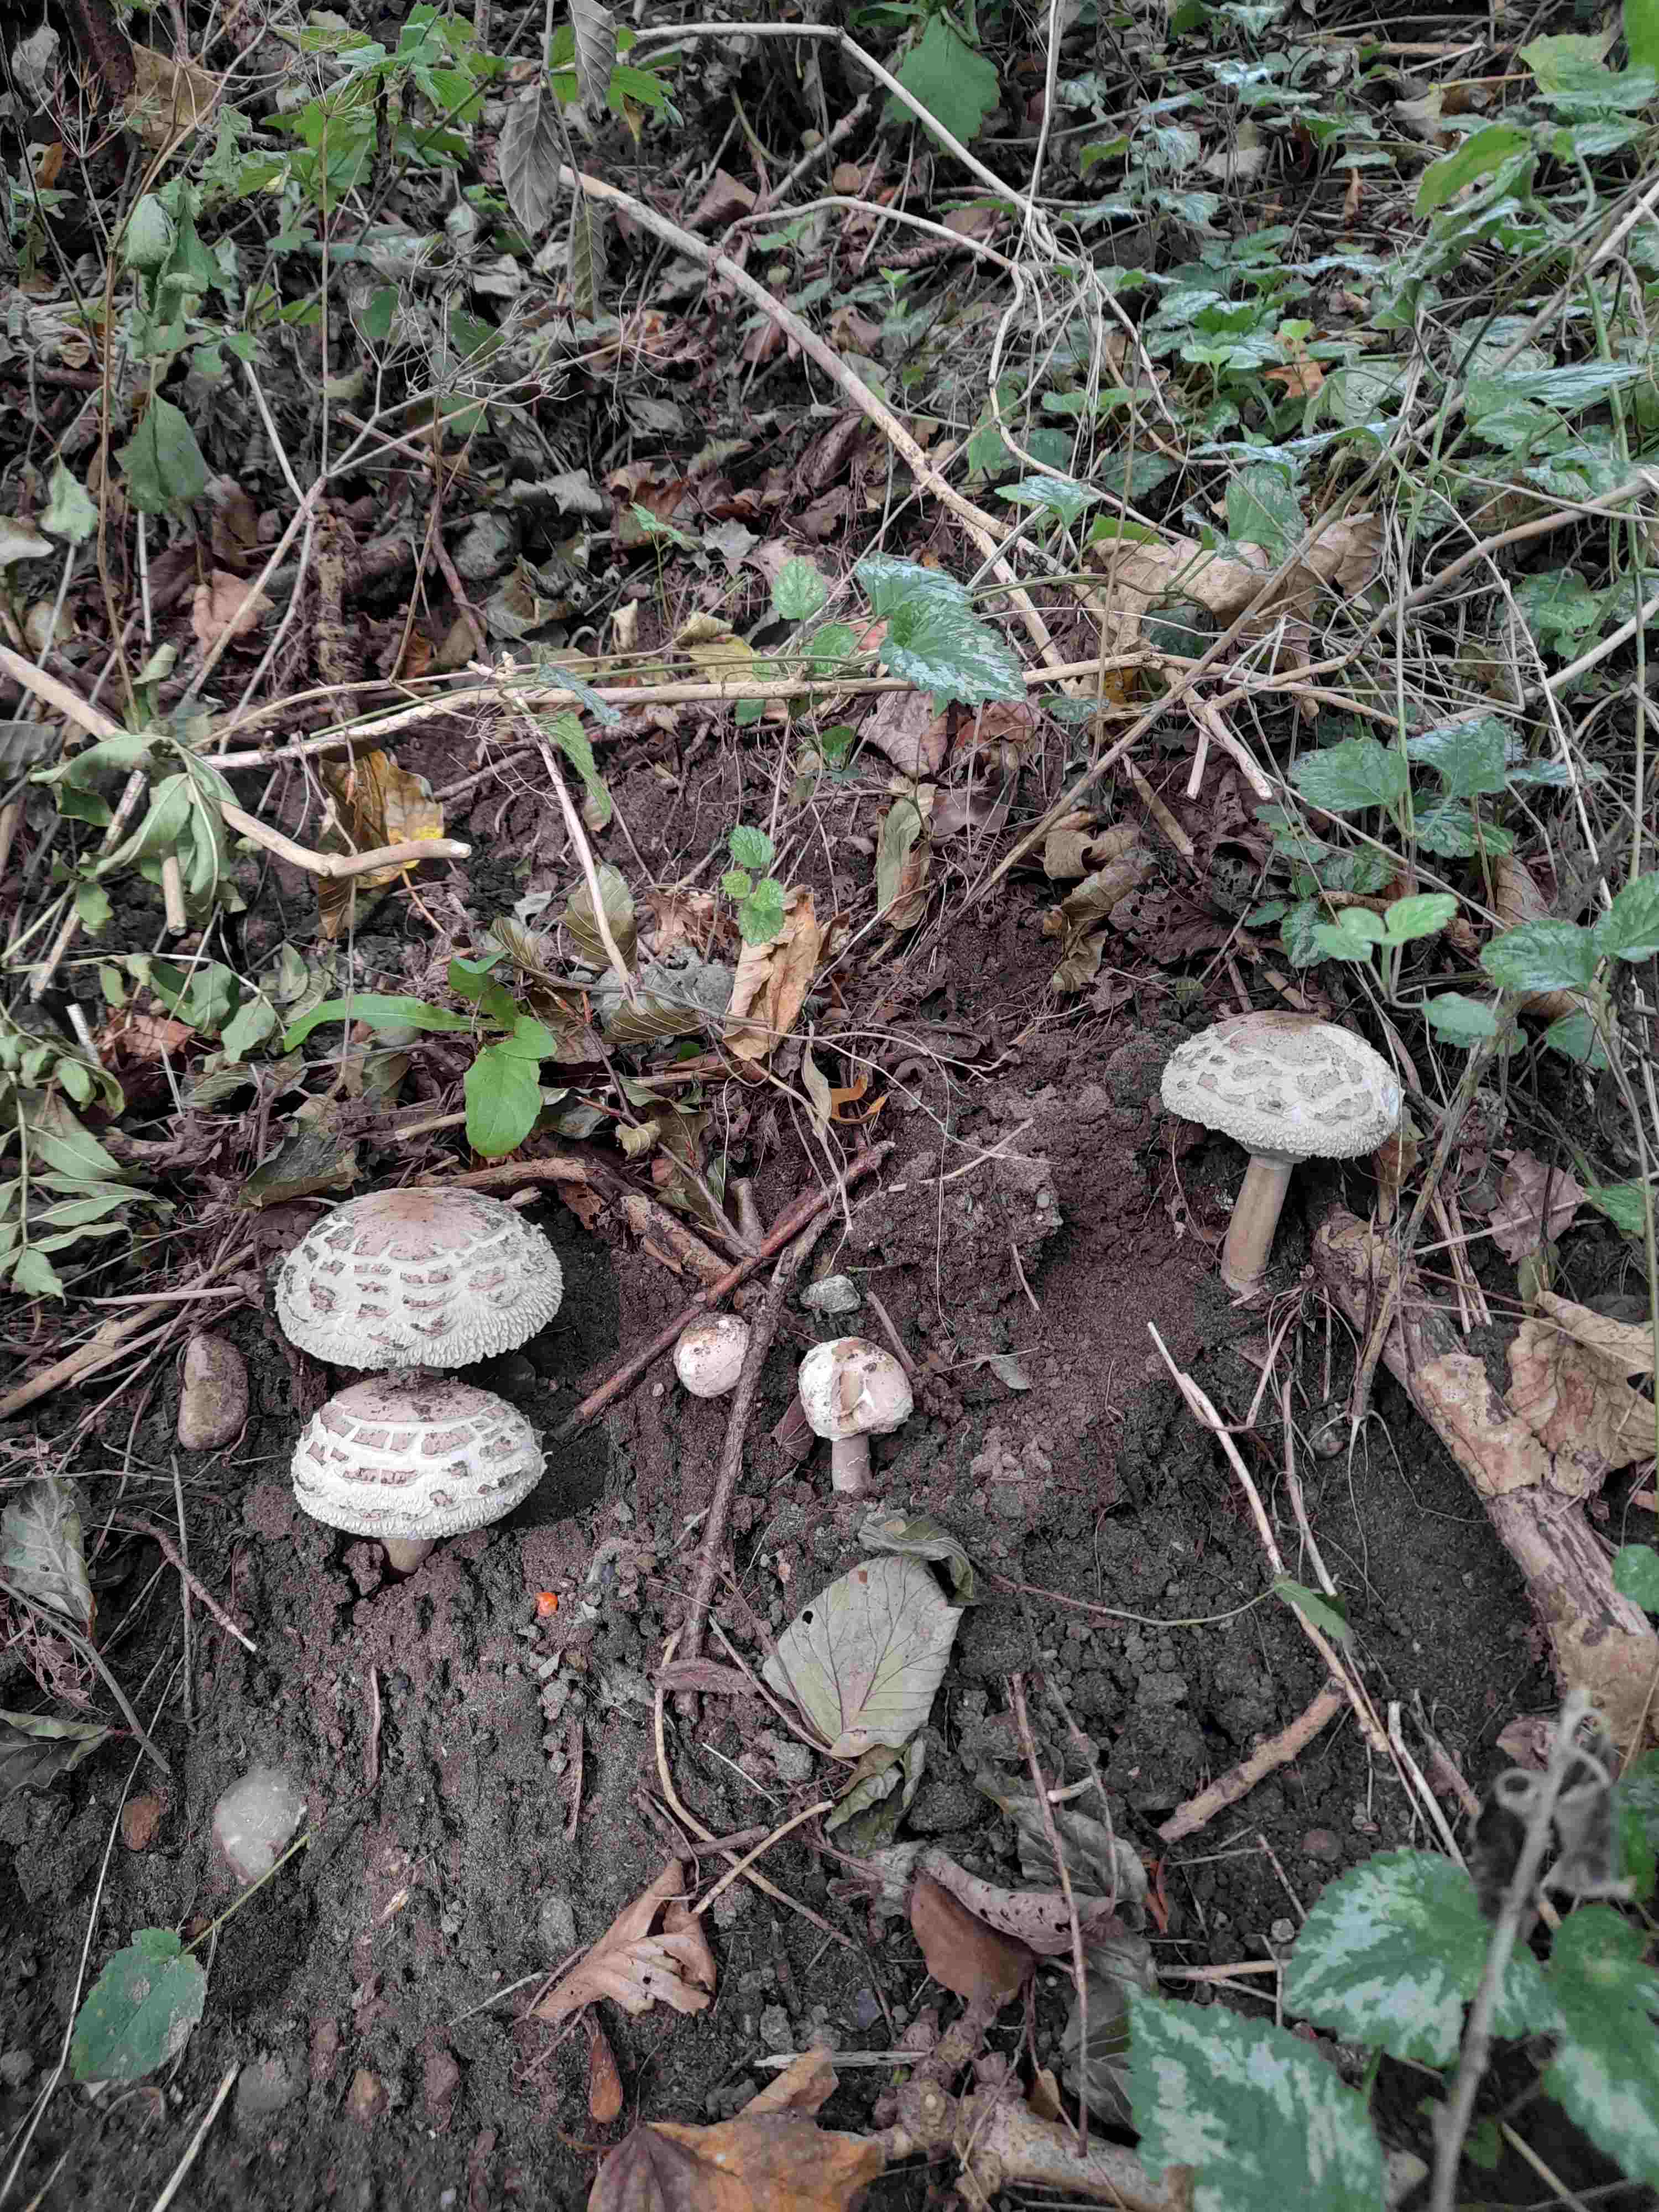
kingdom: Fungi
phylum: Basidiomycota
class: Agaricomycetes
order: Agaricales
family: Agaricaceae
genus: Chlorophyllum
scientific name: Chlorophyllum rhacodes
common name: ægte rabarberhat
